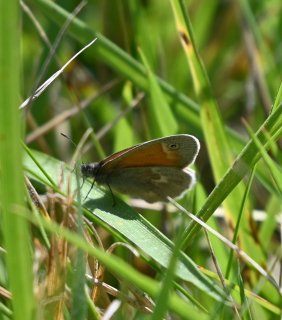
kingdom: Animalia
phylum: Arthropoda
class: Insecta
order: Lepidoptera
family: Nymphalidae
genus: Coenonympha
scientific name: Coenonympha tullia
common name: Large Heath
